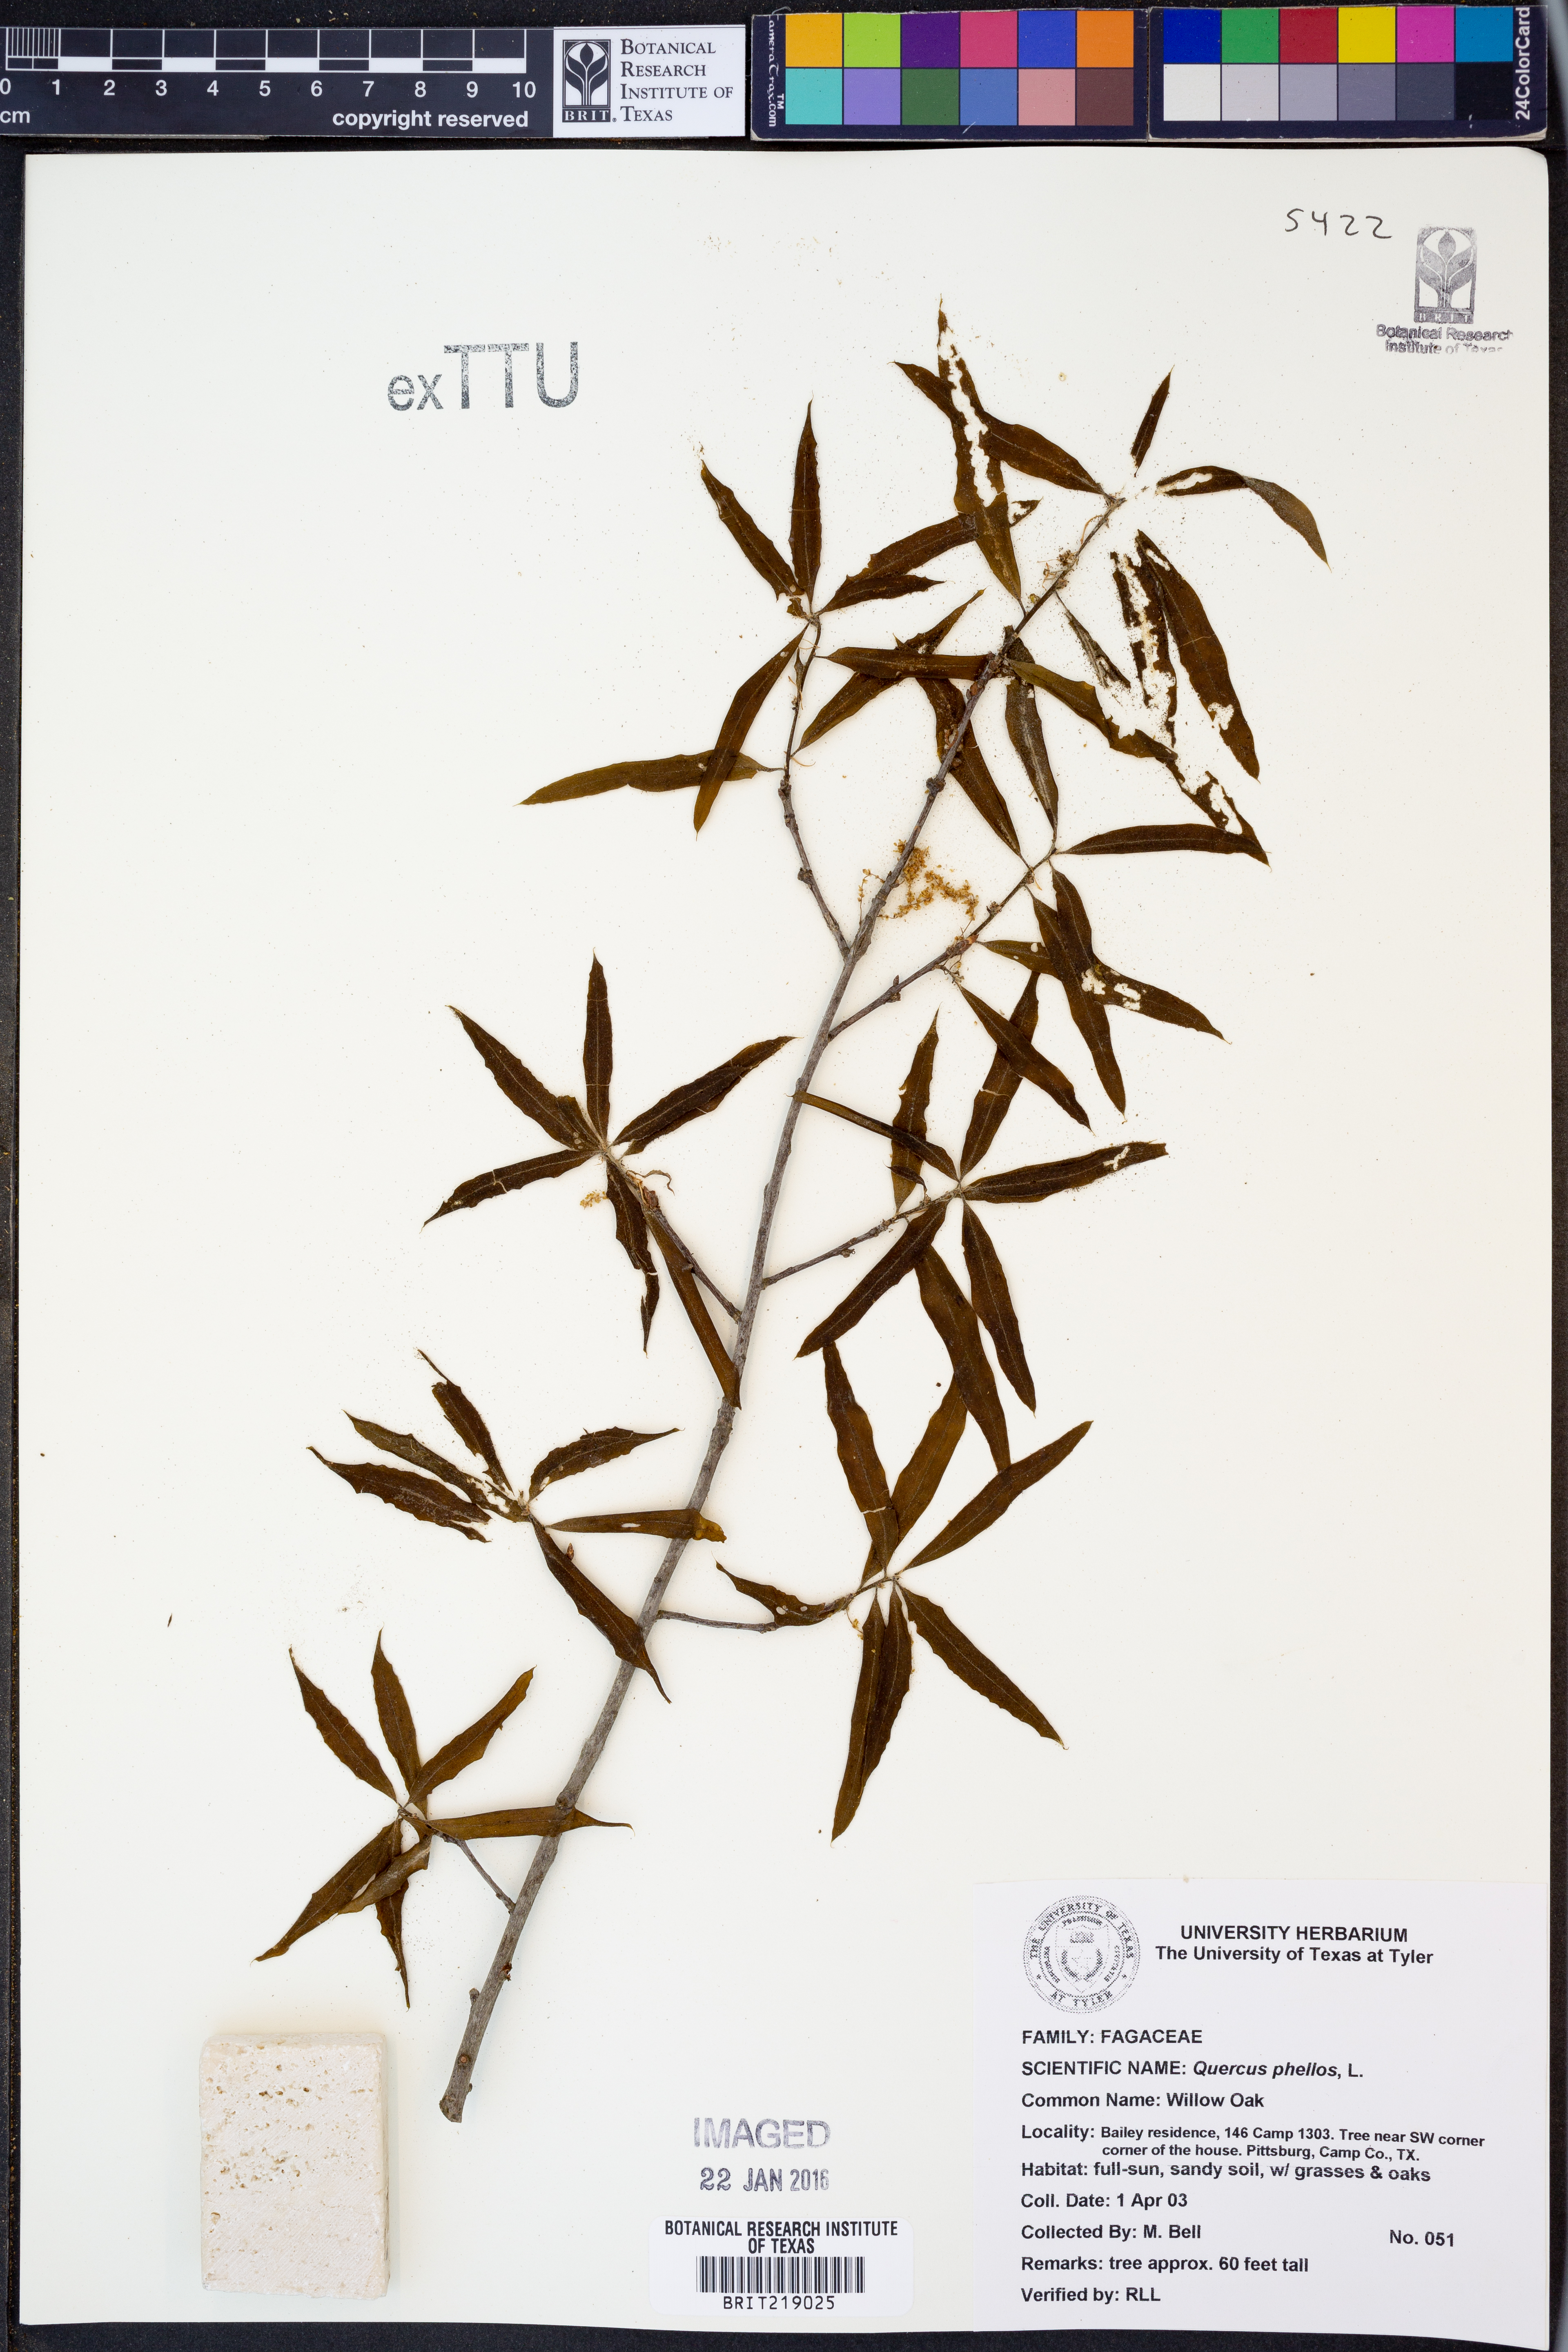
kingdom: Plantae
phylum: Tracheophyta
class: Magnoliopsida
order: Fagales
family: Fagaceae
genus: Quercus
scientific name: Quercus phellos
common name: Willow oak
